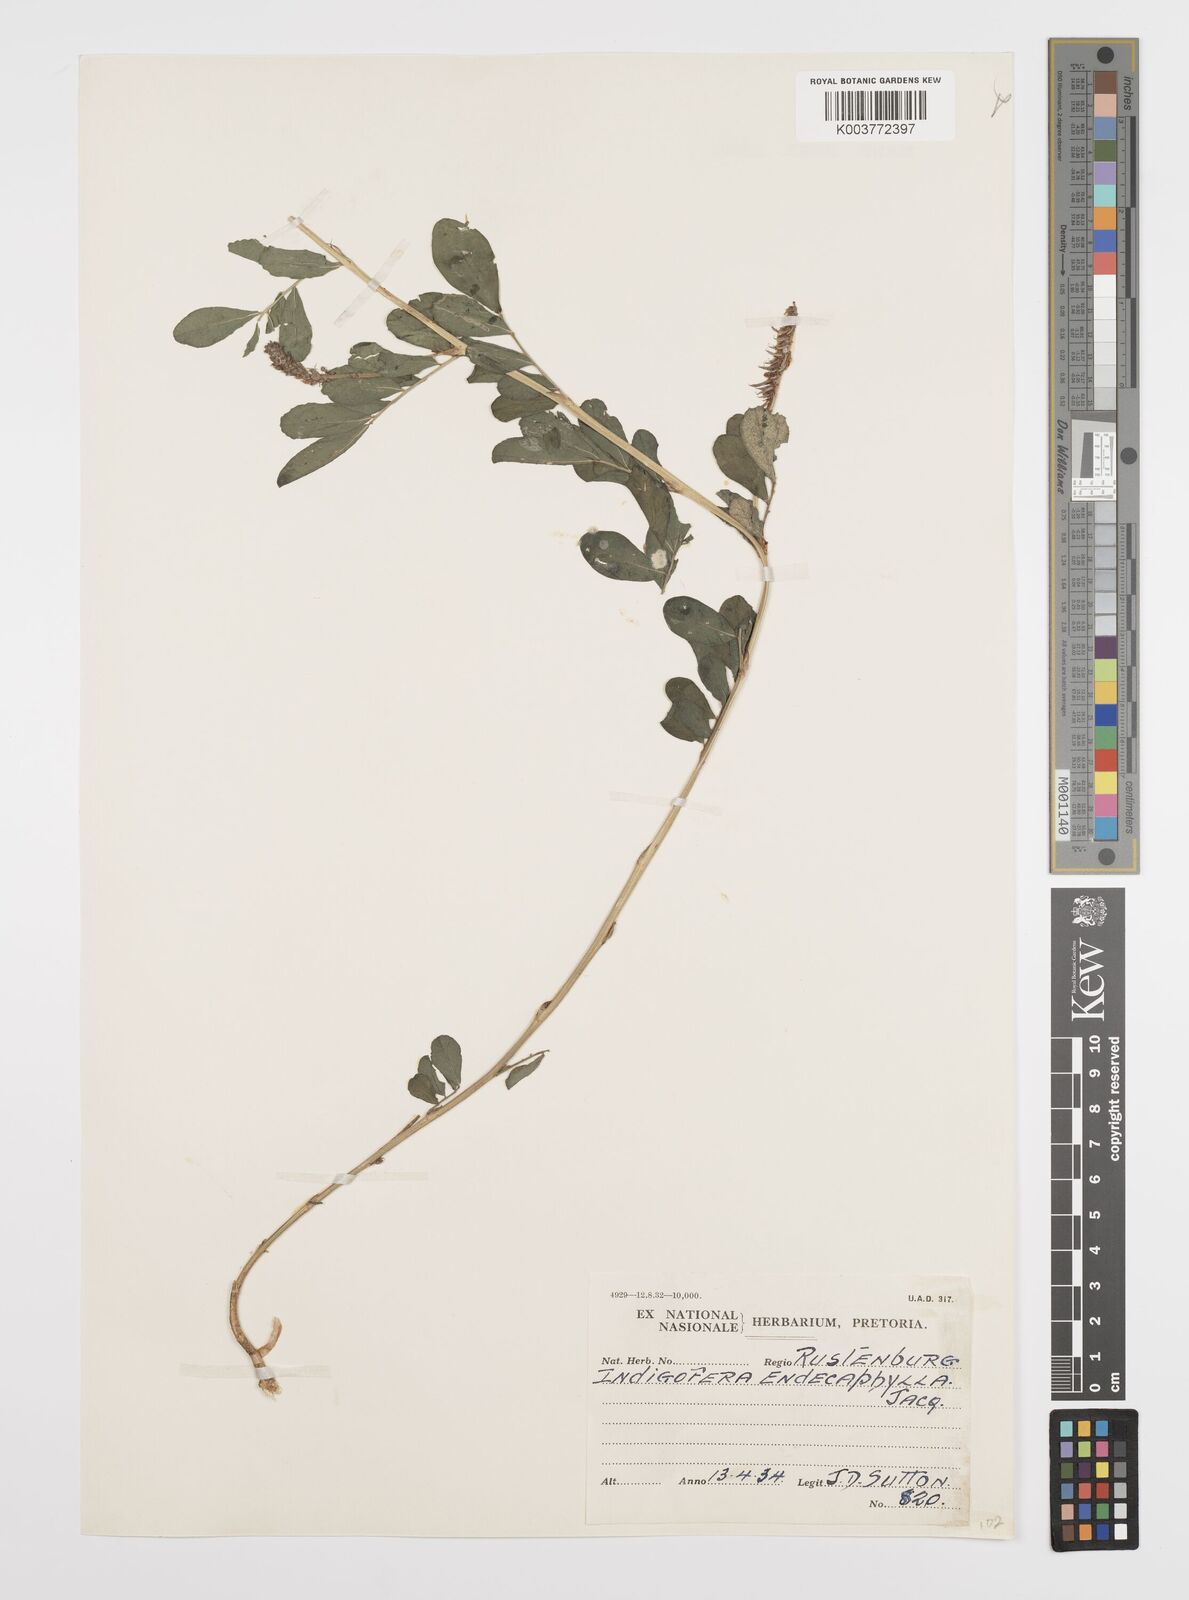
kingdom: Plantae
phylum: Tracheophyta
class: Magnoliopsida
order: Fabales
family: Fabaceae
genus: Indigofera
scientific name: Indigofera spicata
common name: Creeping indigo
